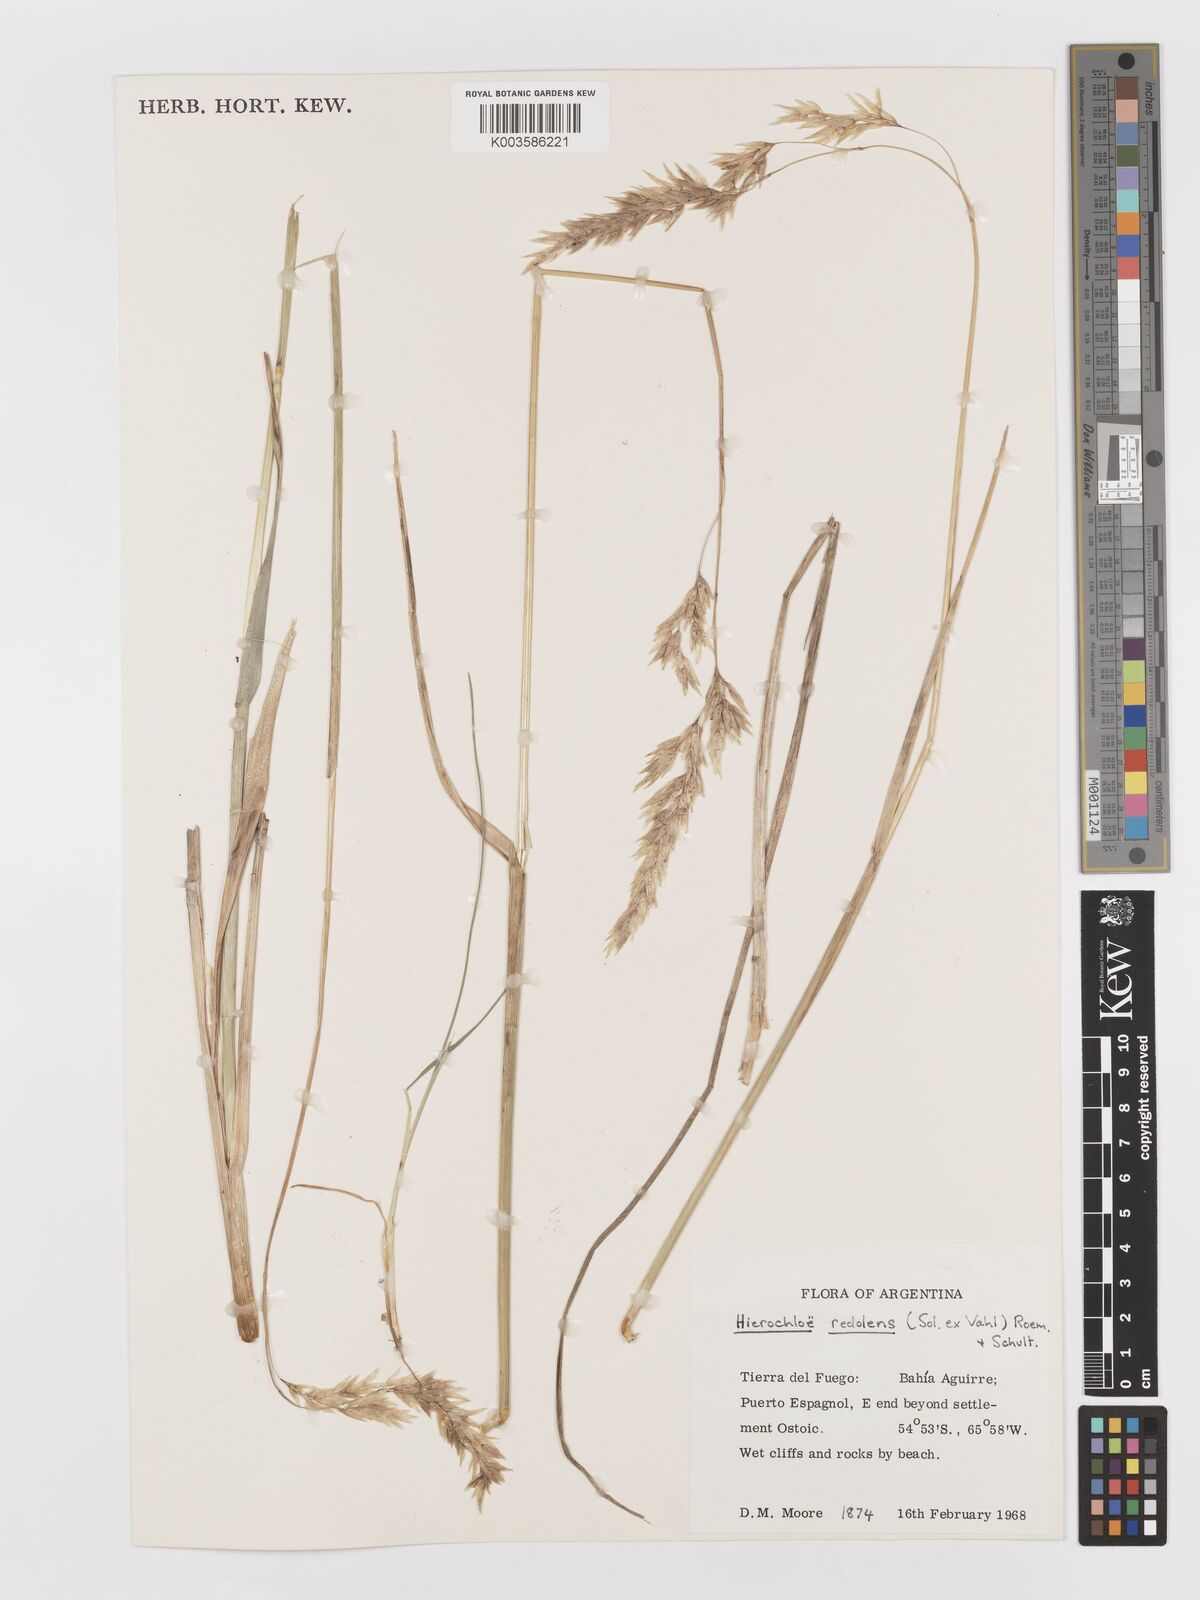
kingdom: Plantae
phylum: Tracheophyta
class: Liliopsida
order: Poales
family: Poaceae
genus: Anthoxanthum
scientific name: Anthoxanthum redolens
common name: Sweet holy grass
